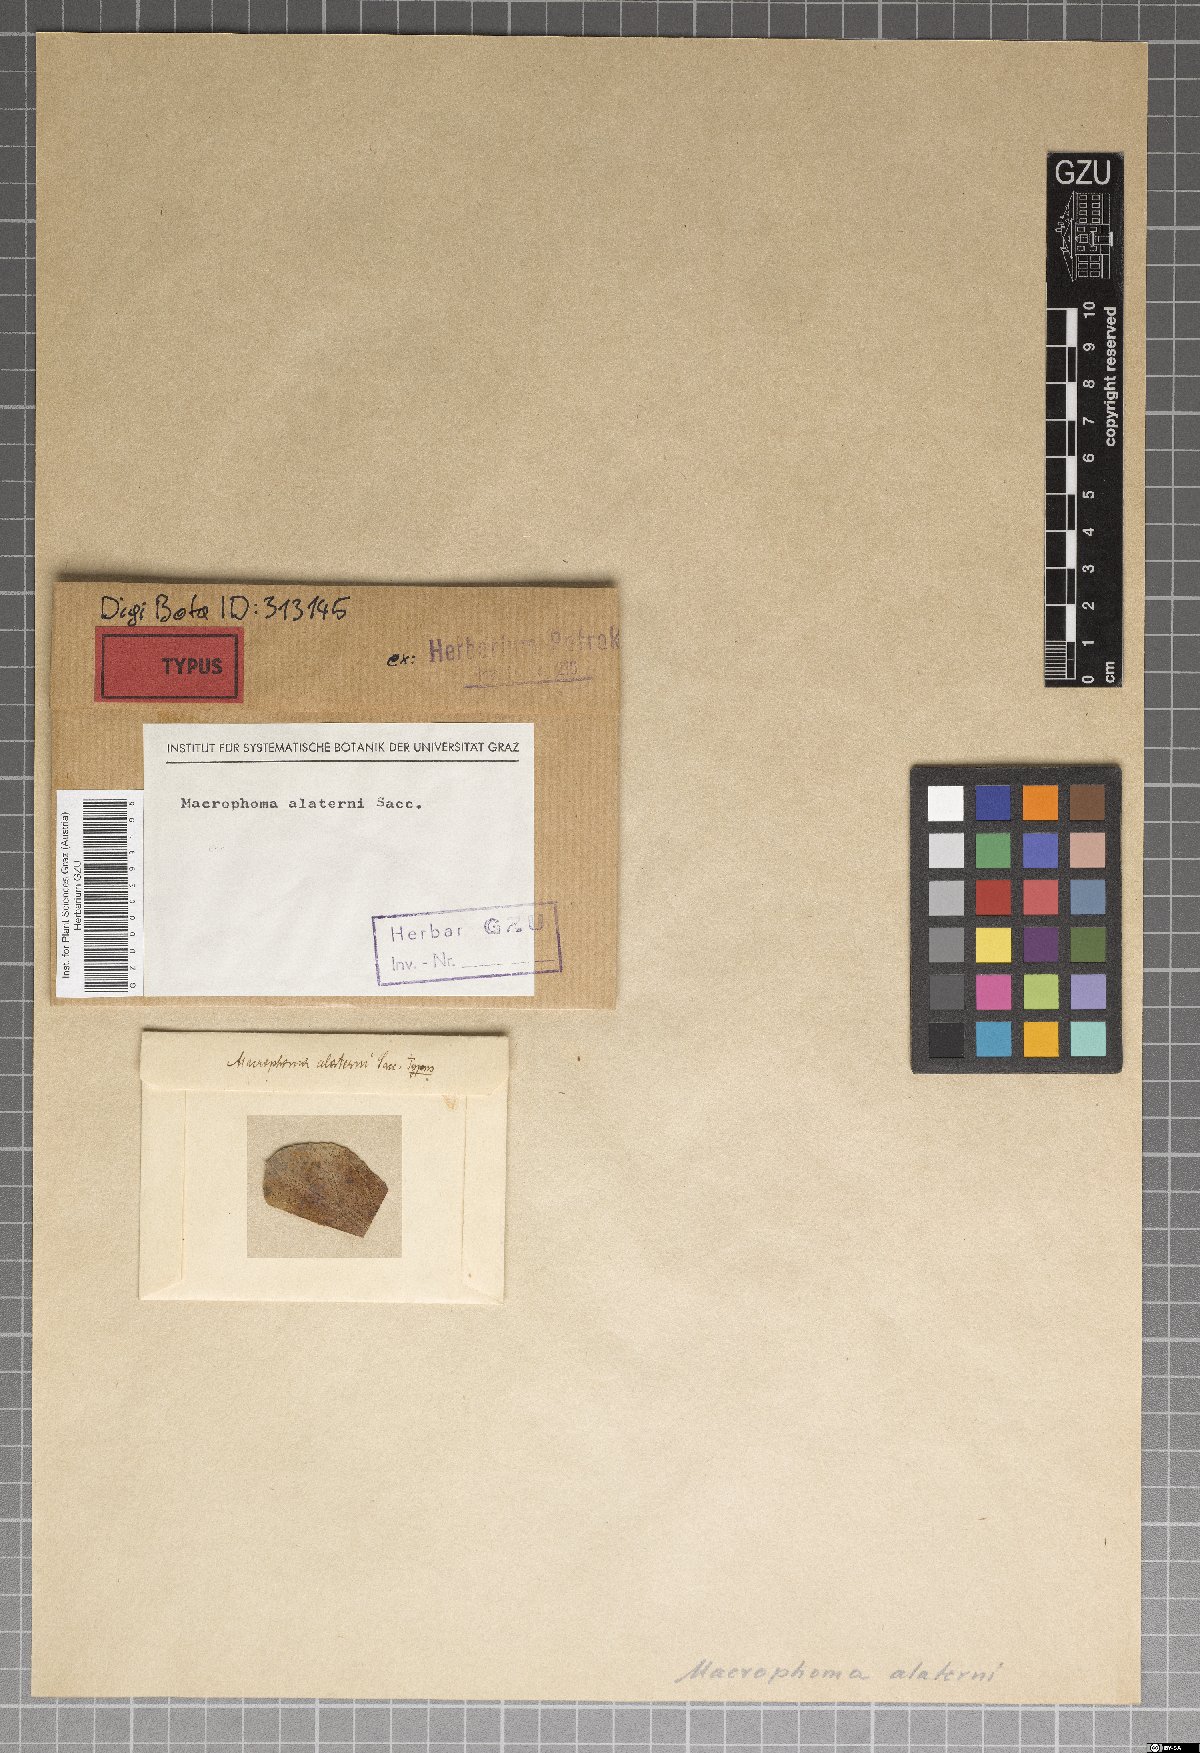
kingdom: Fungi
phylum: Ascomycota
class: Sordariomycetes
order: Diaporthales
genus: Botryodiplodia
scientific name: Botryodiplodia alaterni
